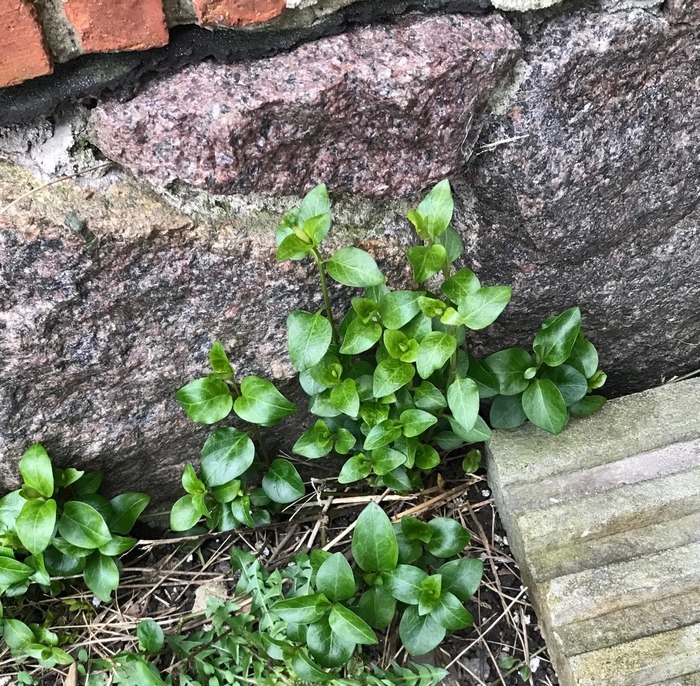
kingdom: Plantae
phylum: Tracheophyta
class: Magnoliopsida
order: Gentianales
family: Apocynaceae
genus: Vinca
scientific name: Vinca major
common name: Stor singrøn
